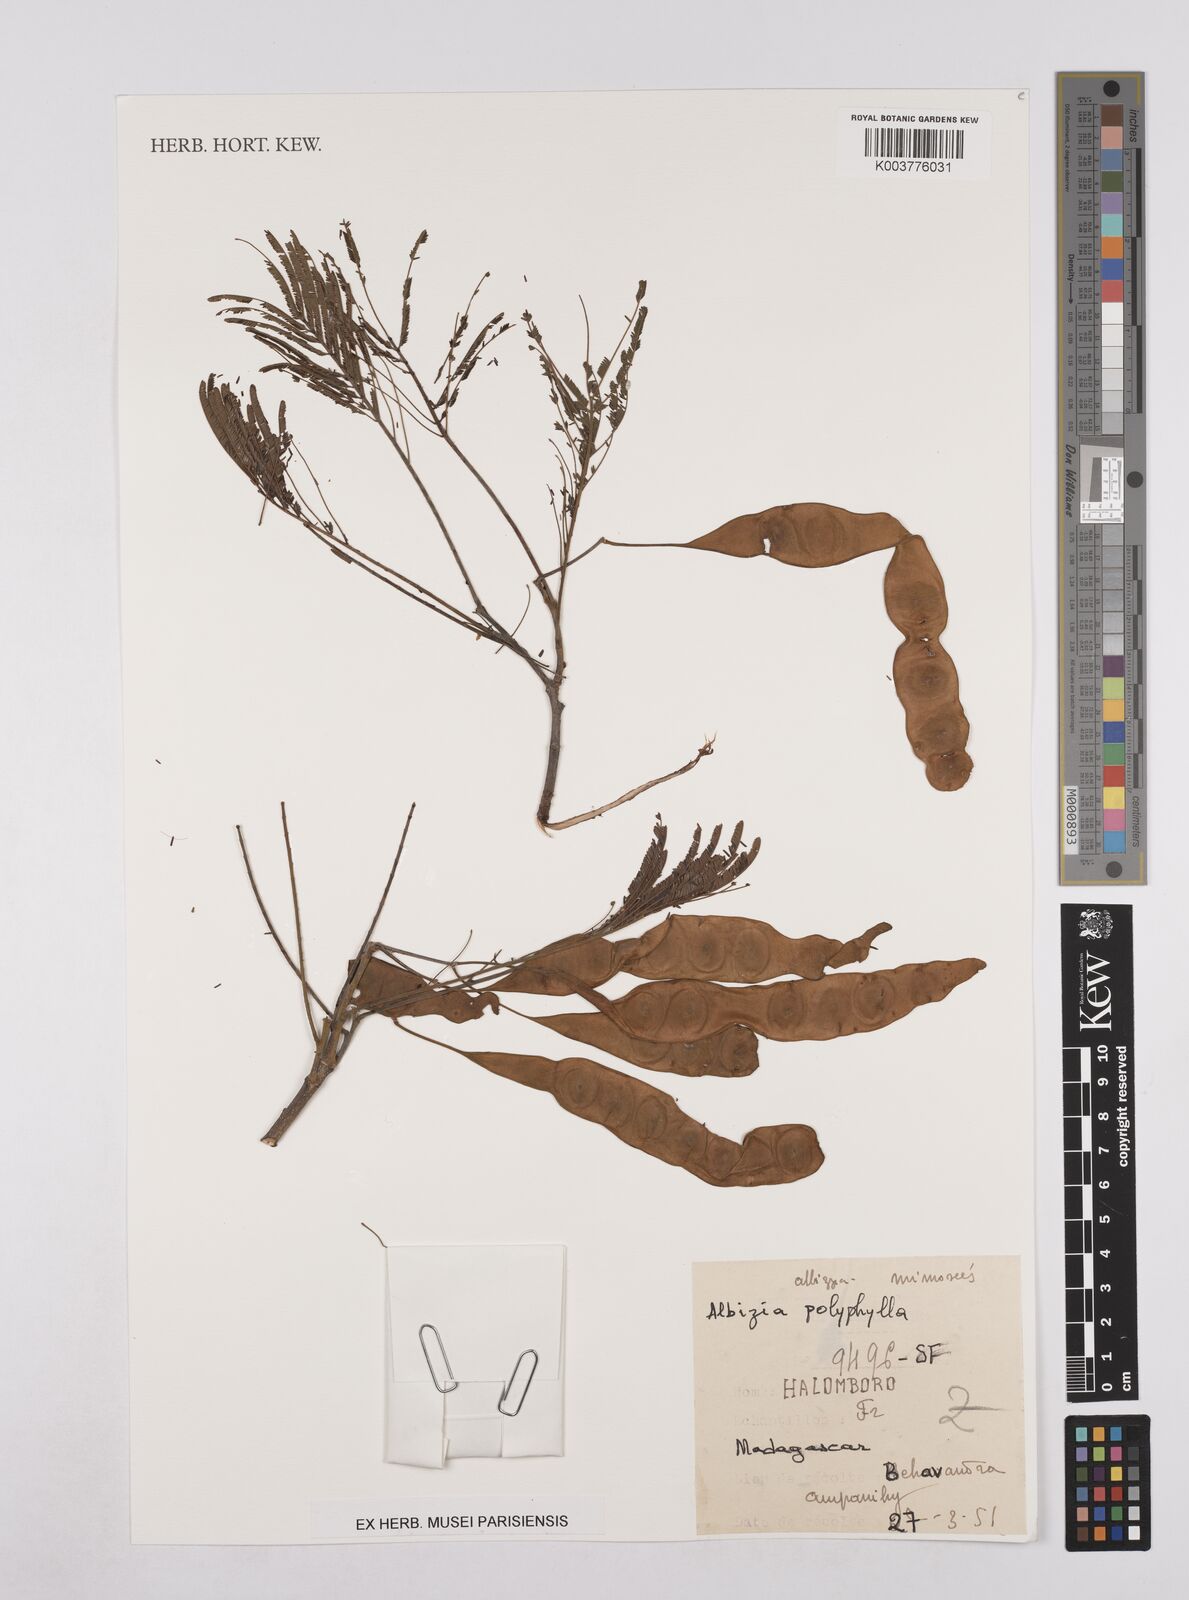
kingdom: Plantae
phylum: Tracheophyta
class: Magnoliopsida
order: Fabales
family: Fabaceae
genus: Albizia
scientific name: Albizia polyphylla
